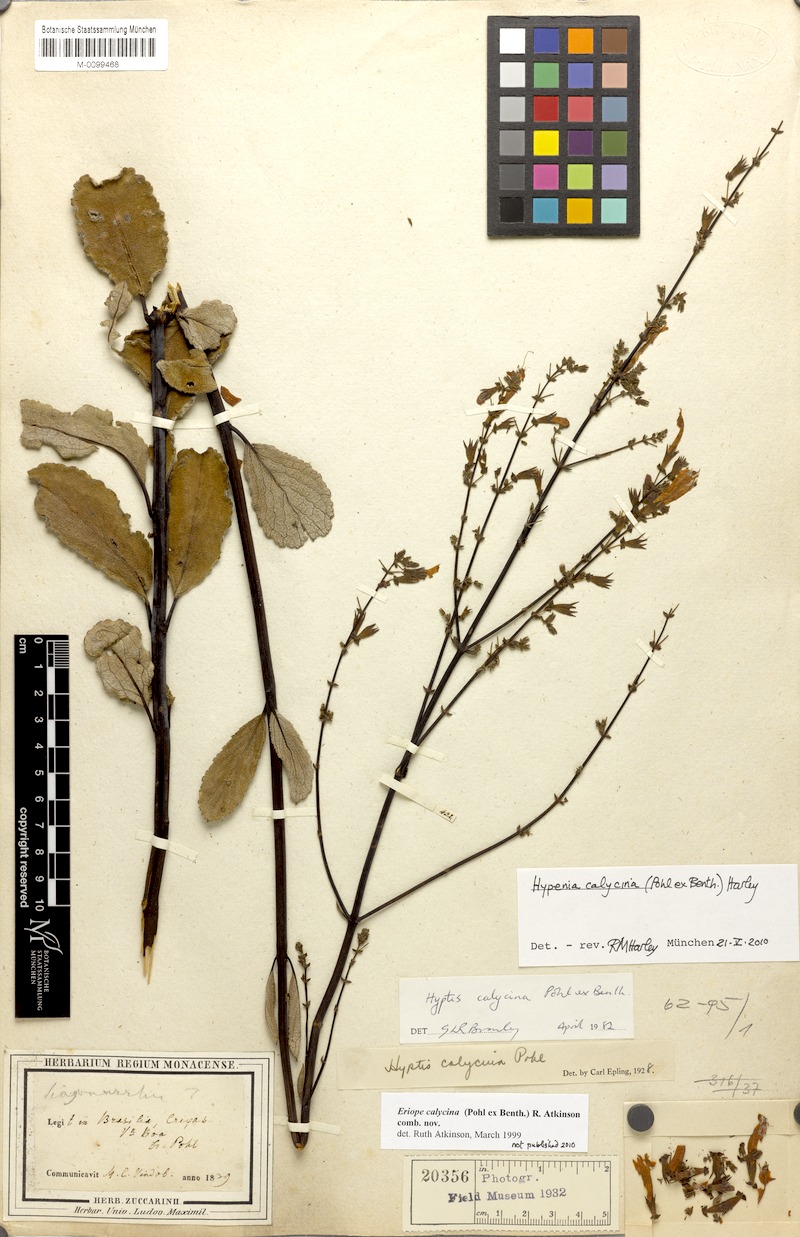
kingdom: Plantae
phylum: Tracheophyta
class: Magnoliopsida
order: Lamiales
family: Lamiaceae
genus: Hypenia
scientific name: Hypenia calycina
